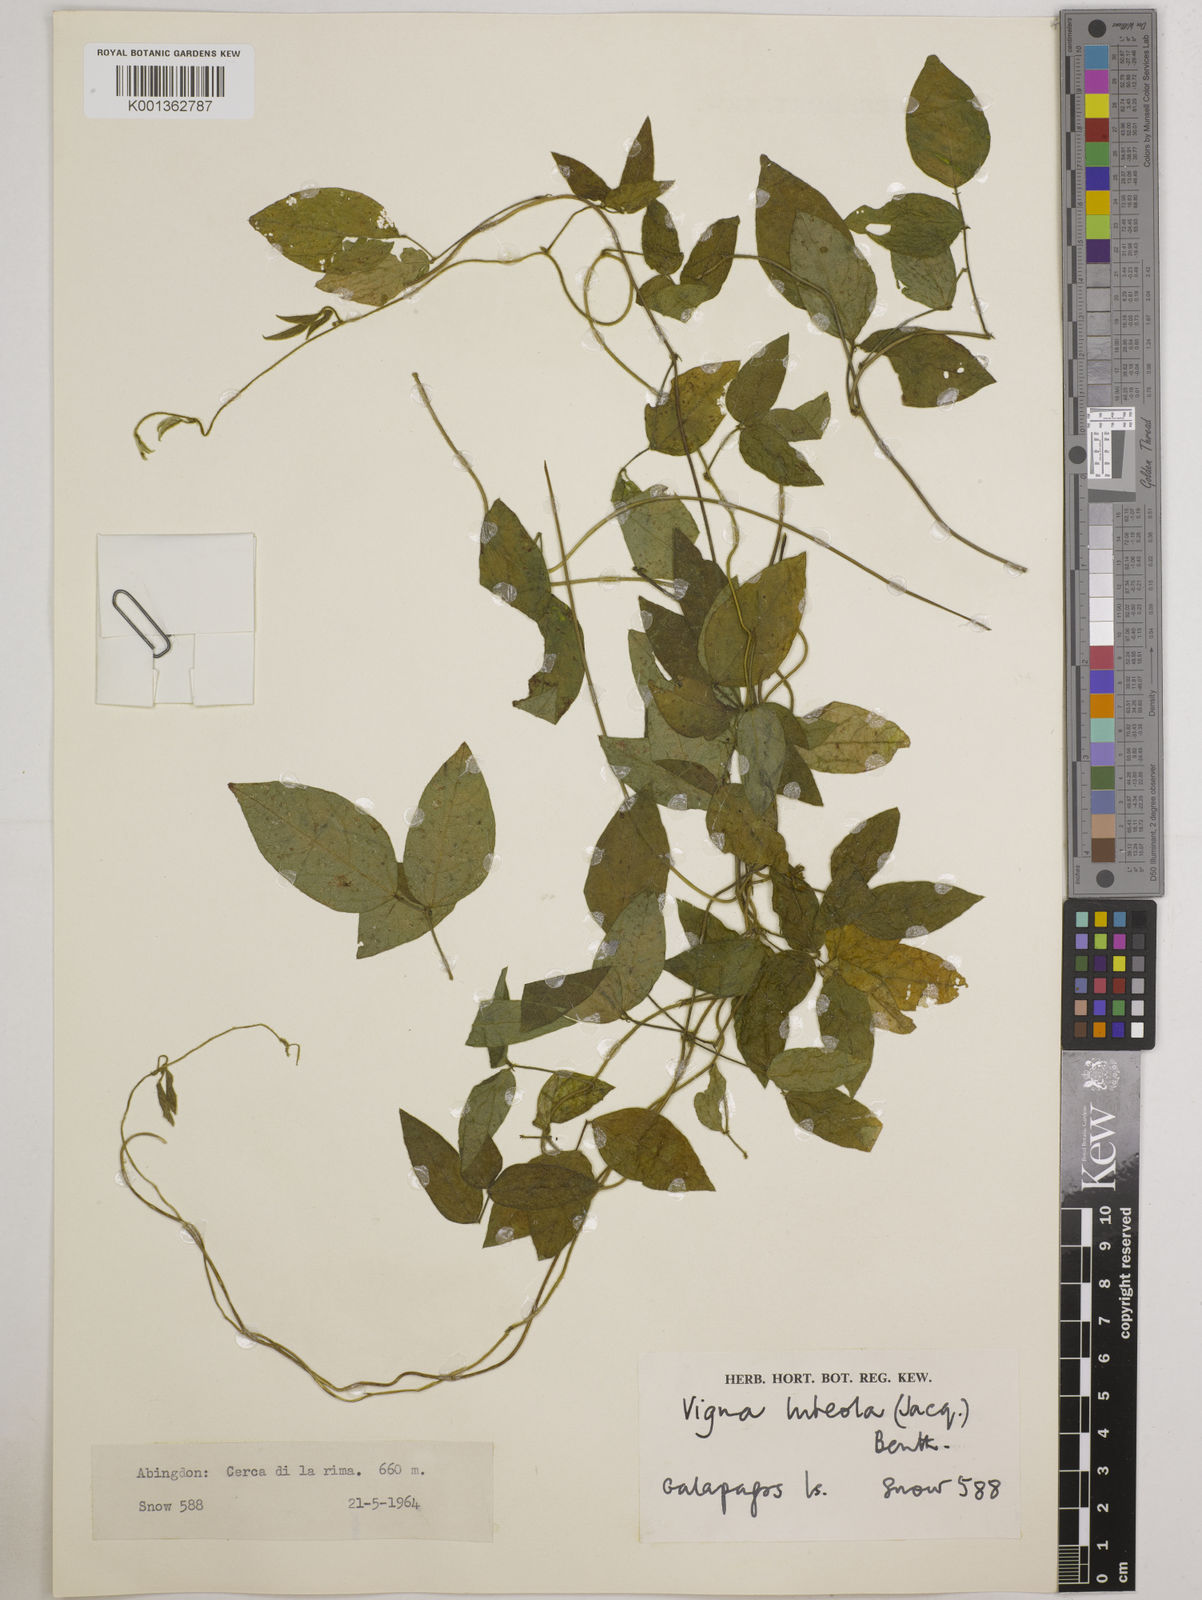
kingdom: Plantae
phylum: Tracheophyta
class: Magnoliopsida
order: Fabales
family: Fabaceae
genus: Vigna
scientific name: Vigna luteola
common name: Hairypod cowpea
